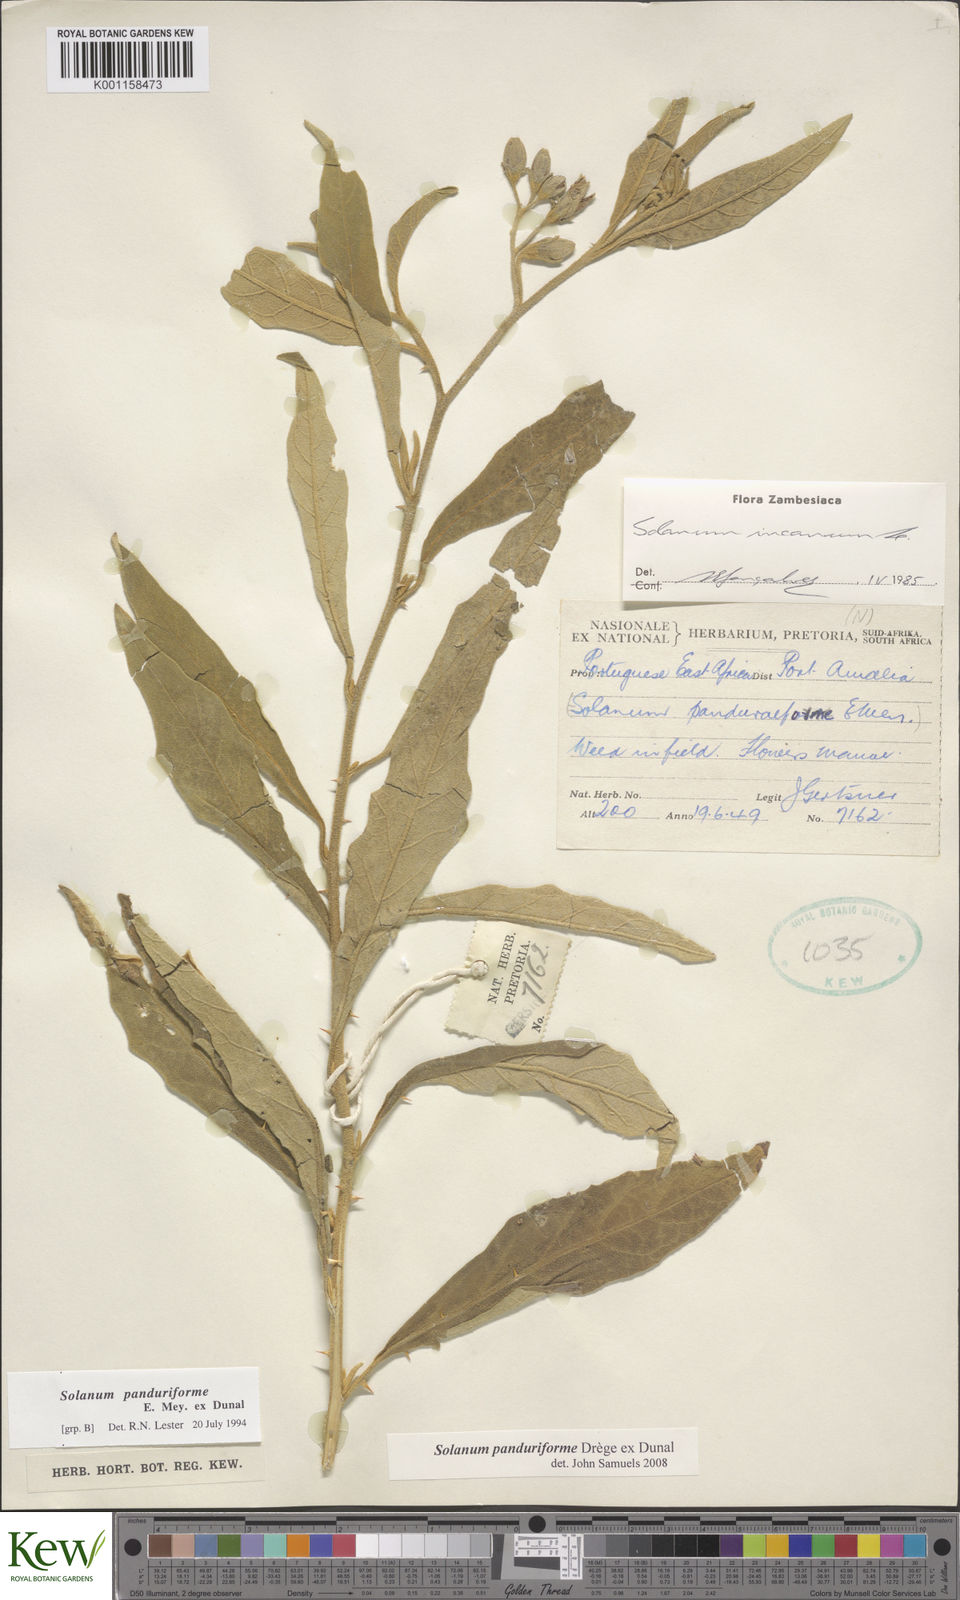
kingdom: Plantae
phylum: Tracheophyta
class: Magnoliopsida
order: Solanales
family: Solanaceae
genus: Solanum
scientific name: Solanum campylacanthum
